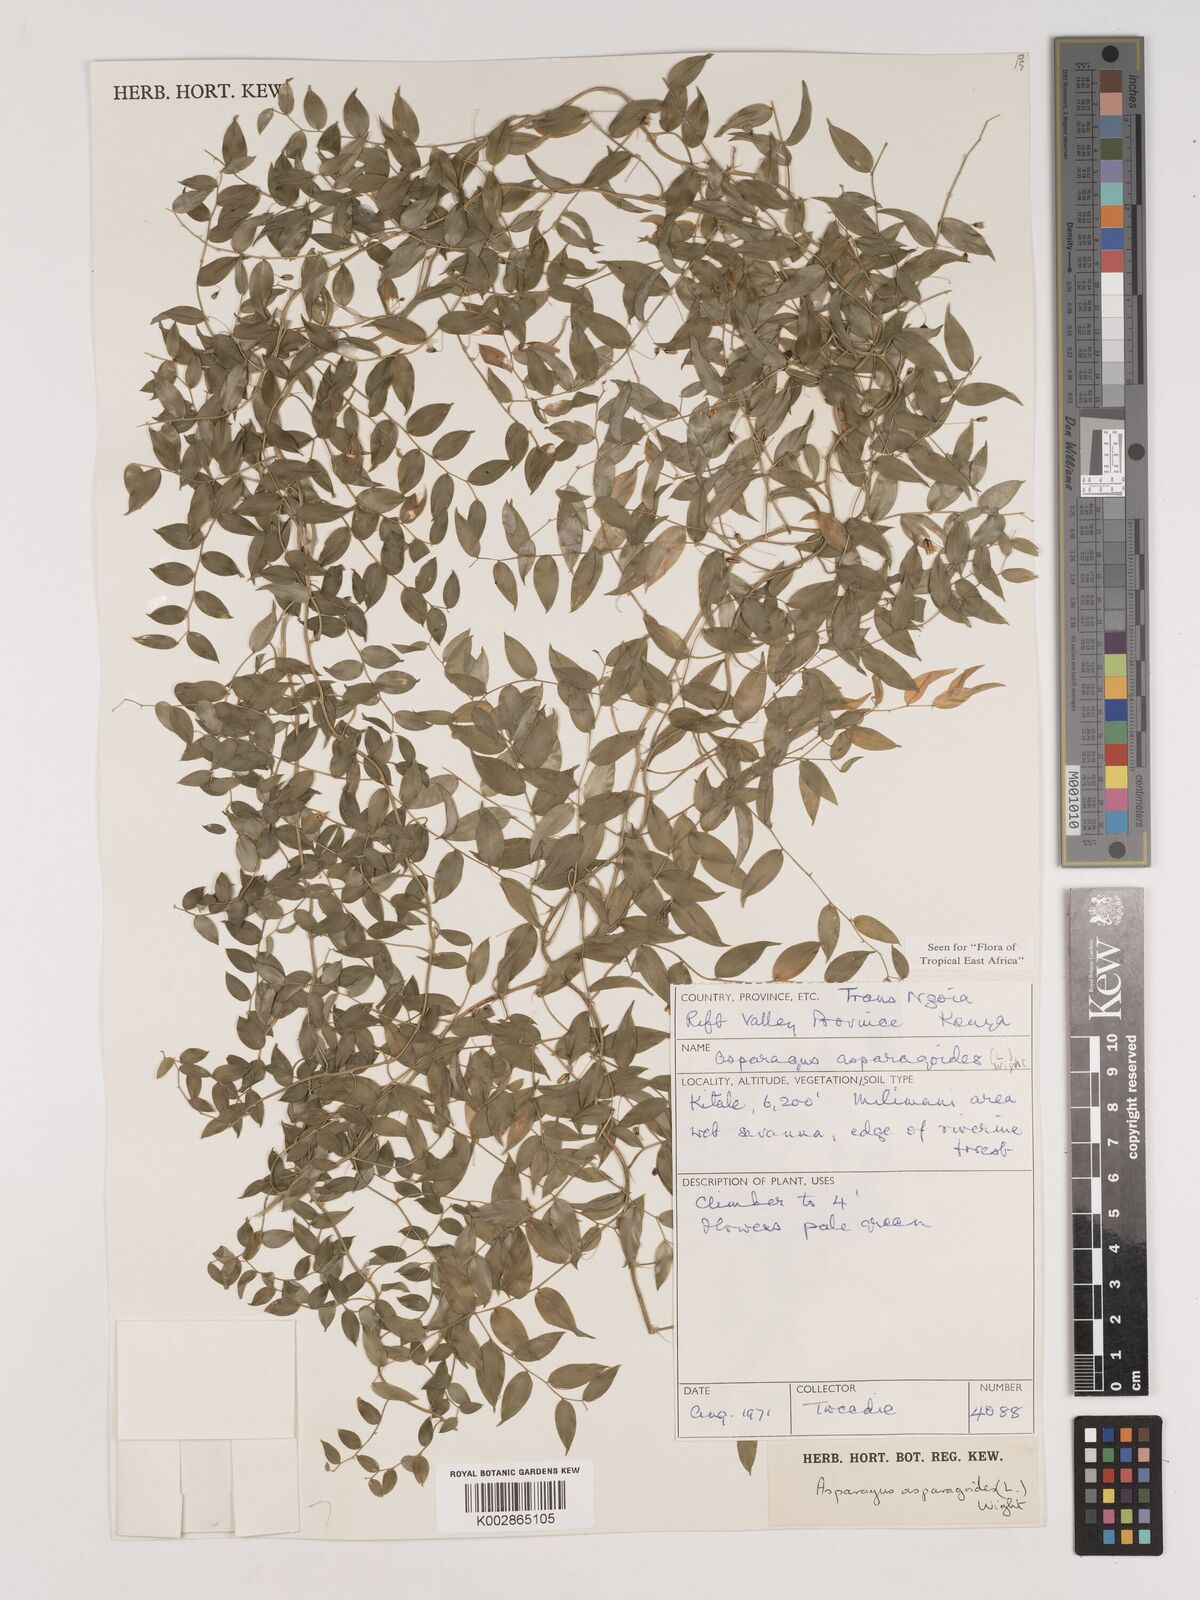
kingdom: Plantae
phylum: Tracheophyta
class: Liliopsida
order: Asparagales
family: Asparagaceae
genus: Asparagus
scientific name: Asparagus asparagoides
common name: African asparagus fern
